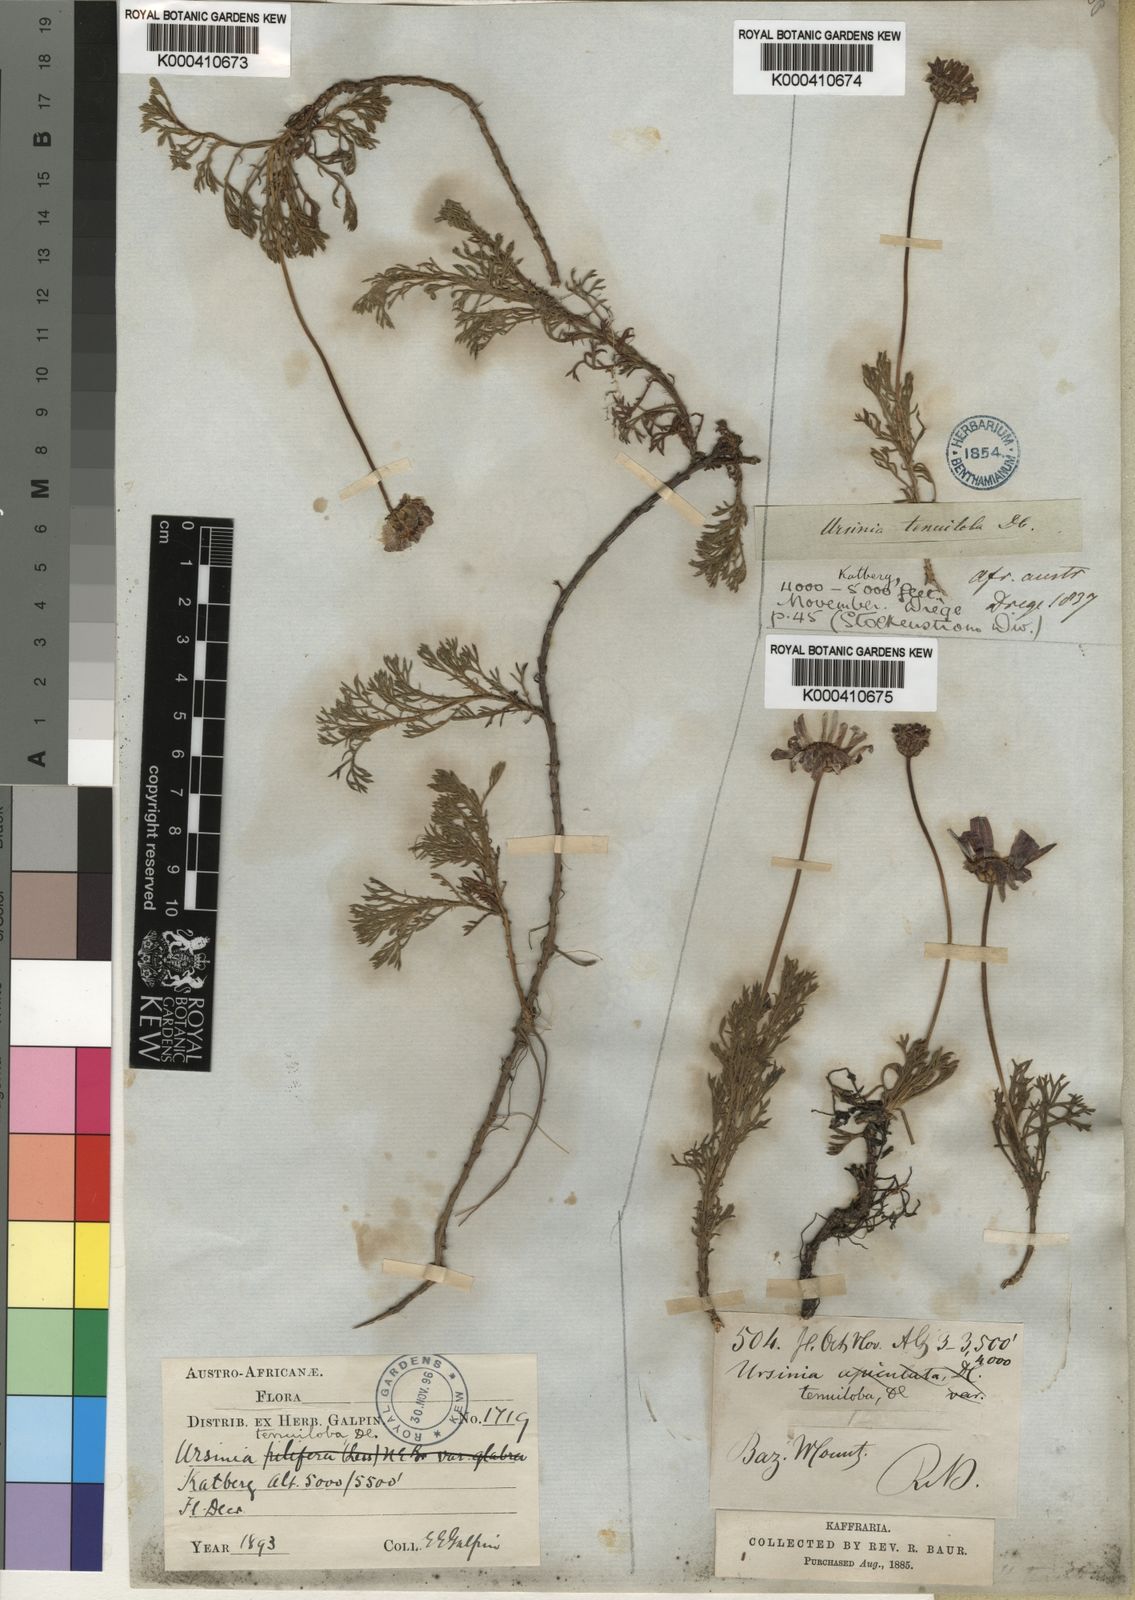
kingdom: Plantae
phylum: Tracheophyta
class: Magnoliopsida
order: Asterales
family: Asteraceae
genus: Ursinia
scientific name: Ursinia tenuiloba
